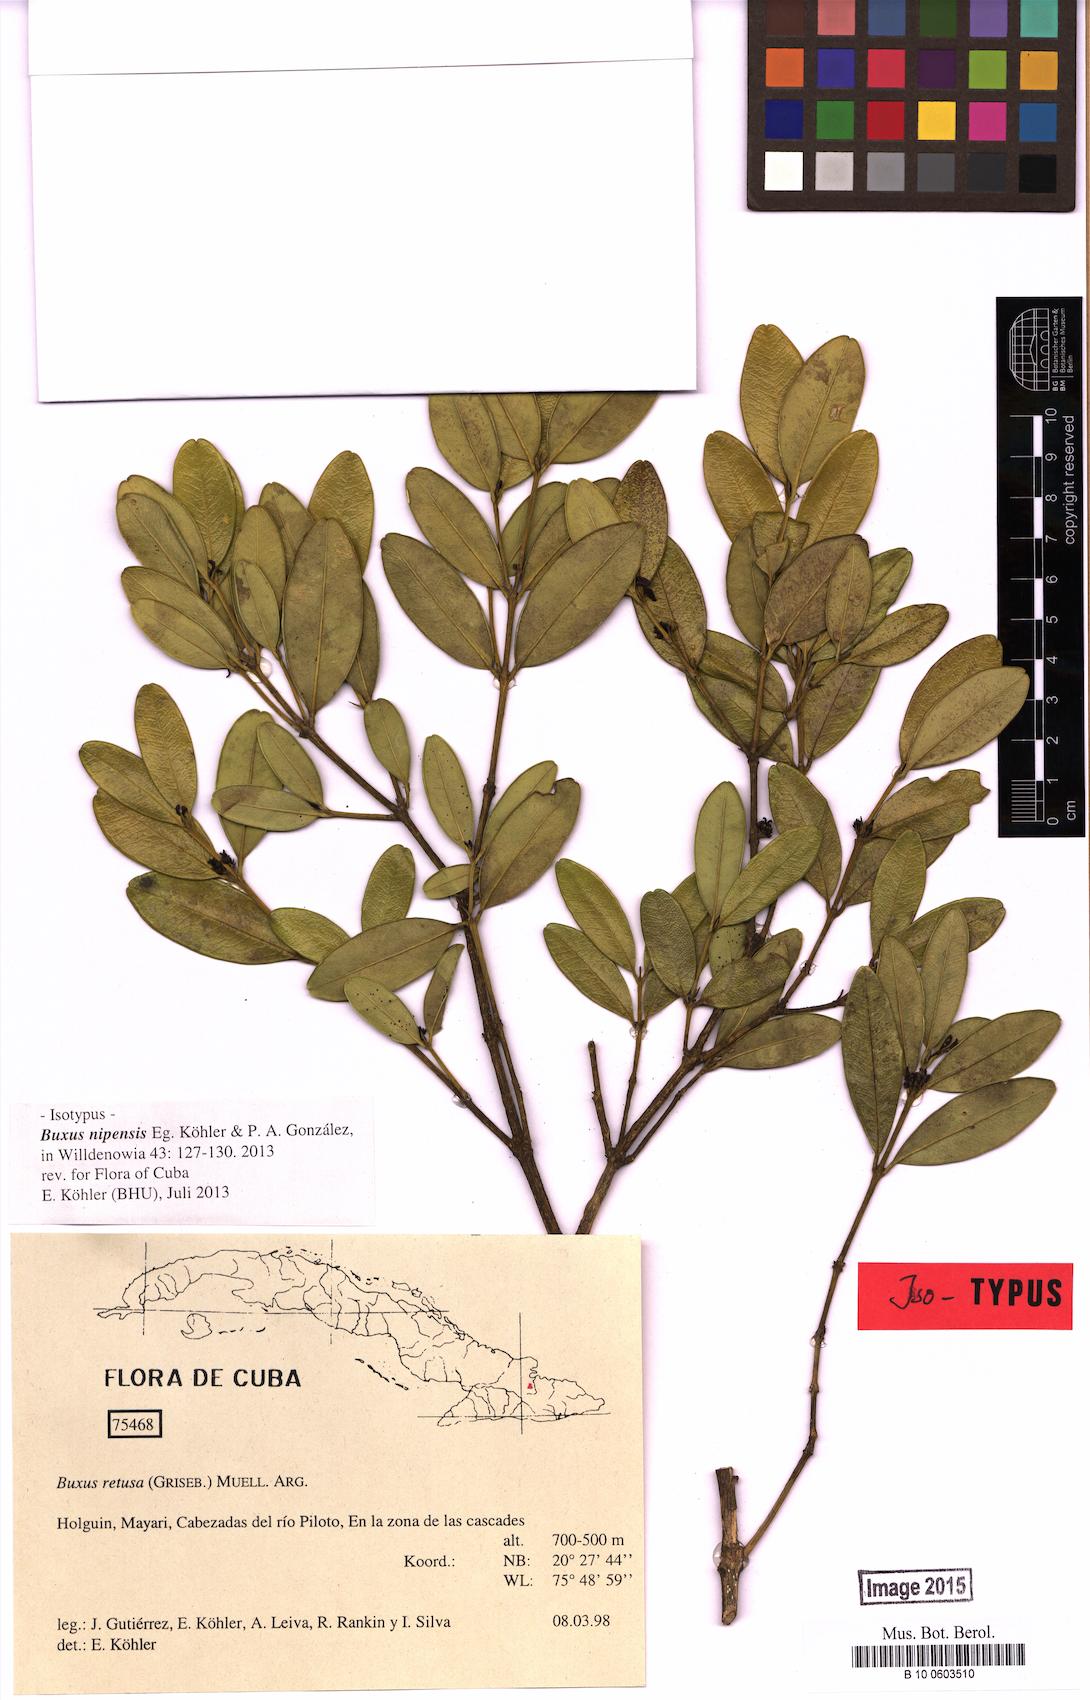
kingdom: Plantae
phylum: Tracheophyta
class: Magnoliopsida
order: Buxales
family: Buxaceae
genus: Buxus
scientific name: Buxus nipensis
